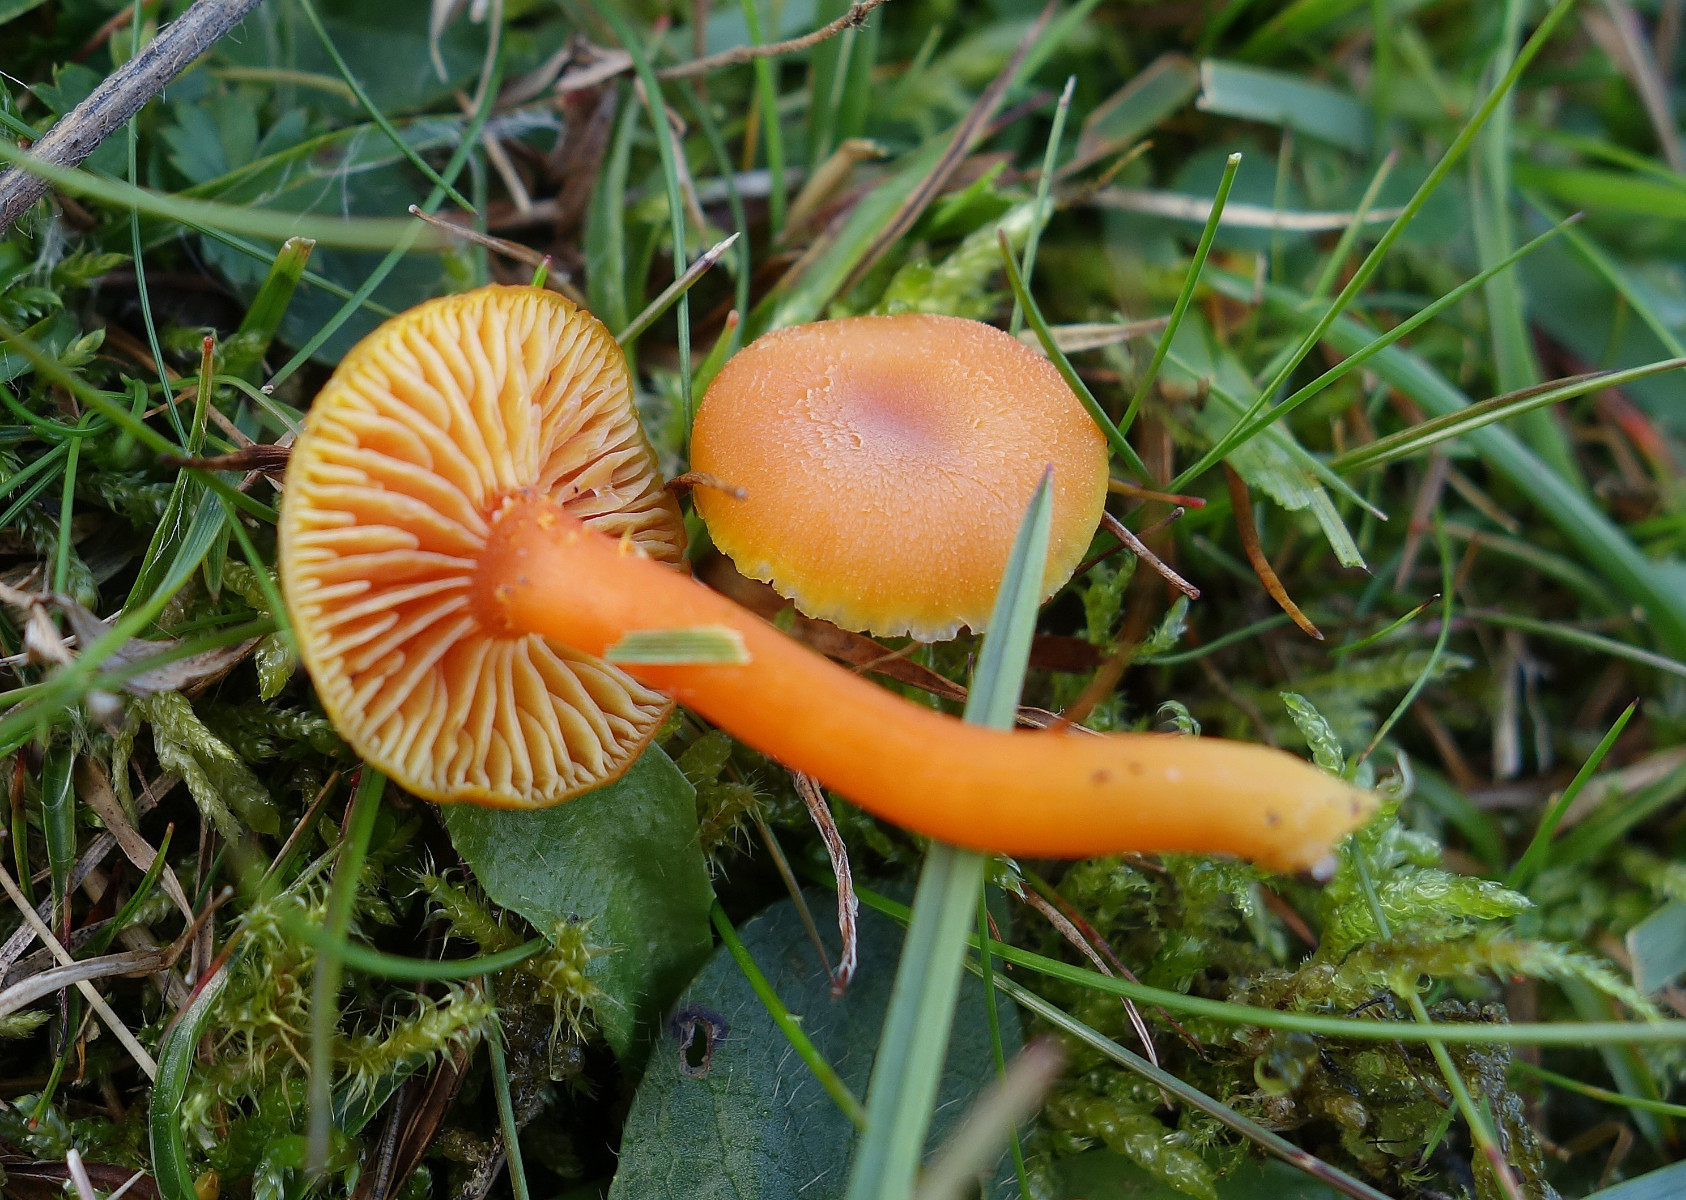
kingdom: Fungi
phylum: Basidiomycota
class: Agaricomycetes
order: Agaricales
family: Hygrophoraceae
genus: Hygrocybe
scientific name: Hygrocybe reidii
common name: honning-vokshat
